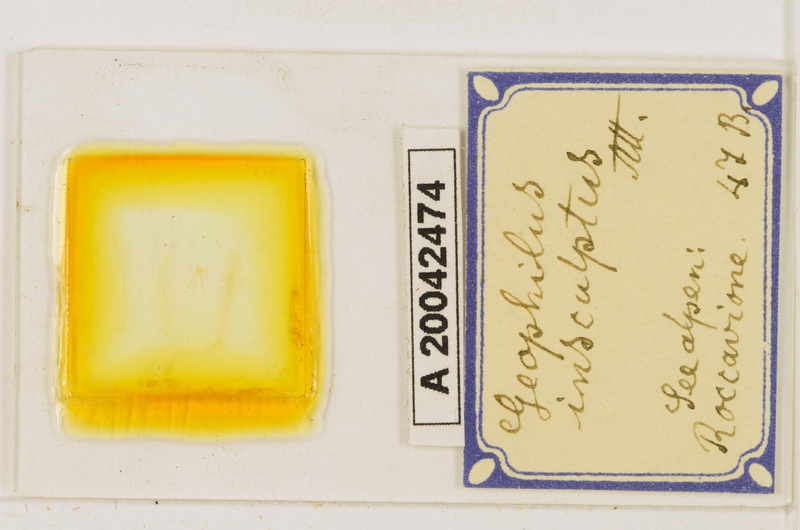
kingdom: Animalia
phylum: Arthropoda
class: Chilopoda
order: Geophilomorpha
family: Geophilidae
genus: Geophilus
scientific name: Geophilus insculptus
